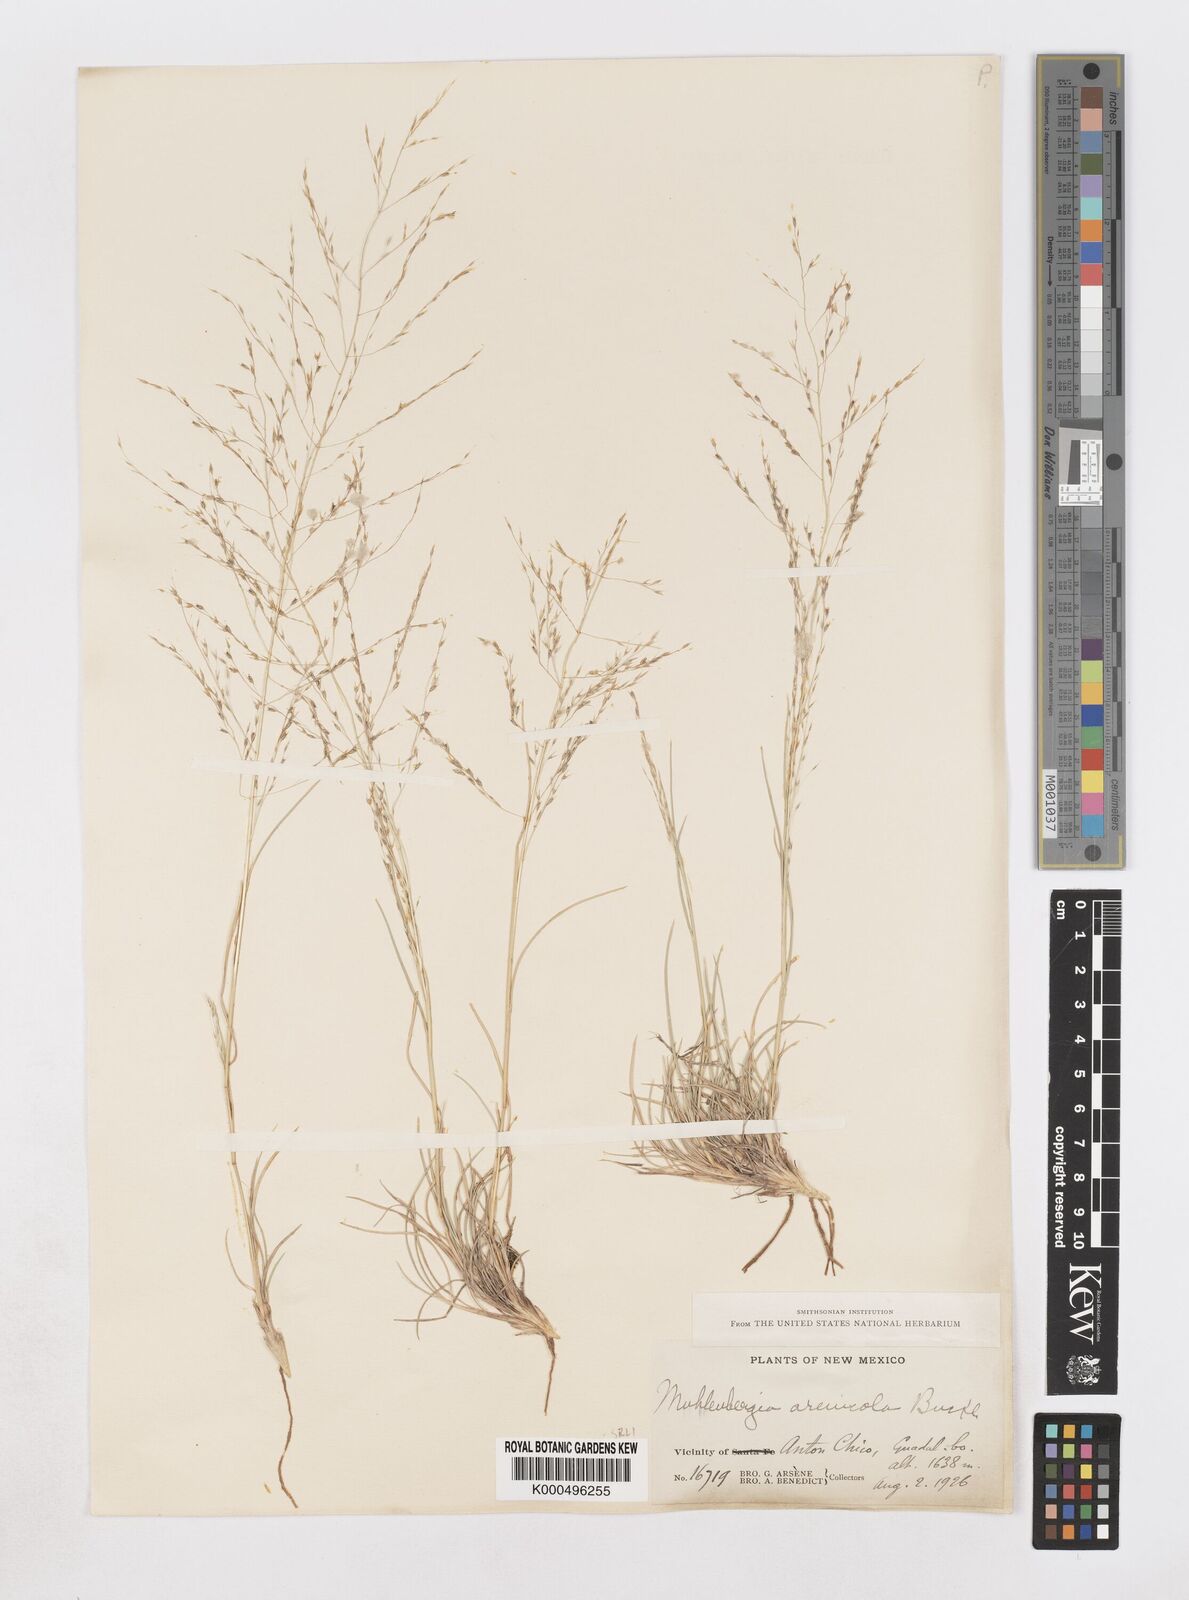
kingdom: Plantae
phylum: Tracheophyta
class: Liliopsida
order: Poales
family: Poaceae
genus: Muhlenbergia
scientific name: Muhlenbergia arenicola
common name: Sand muhly
